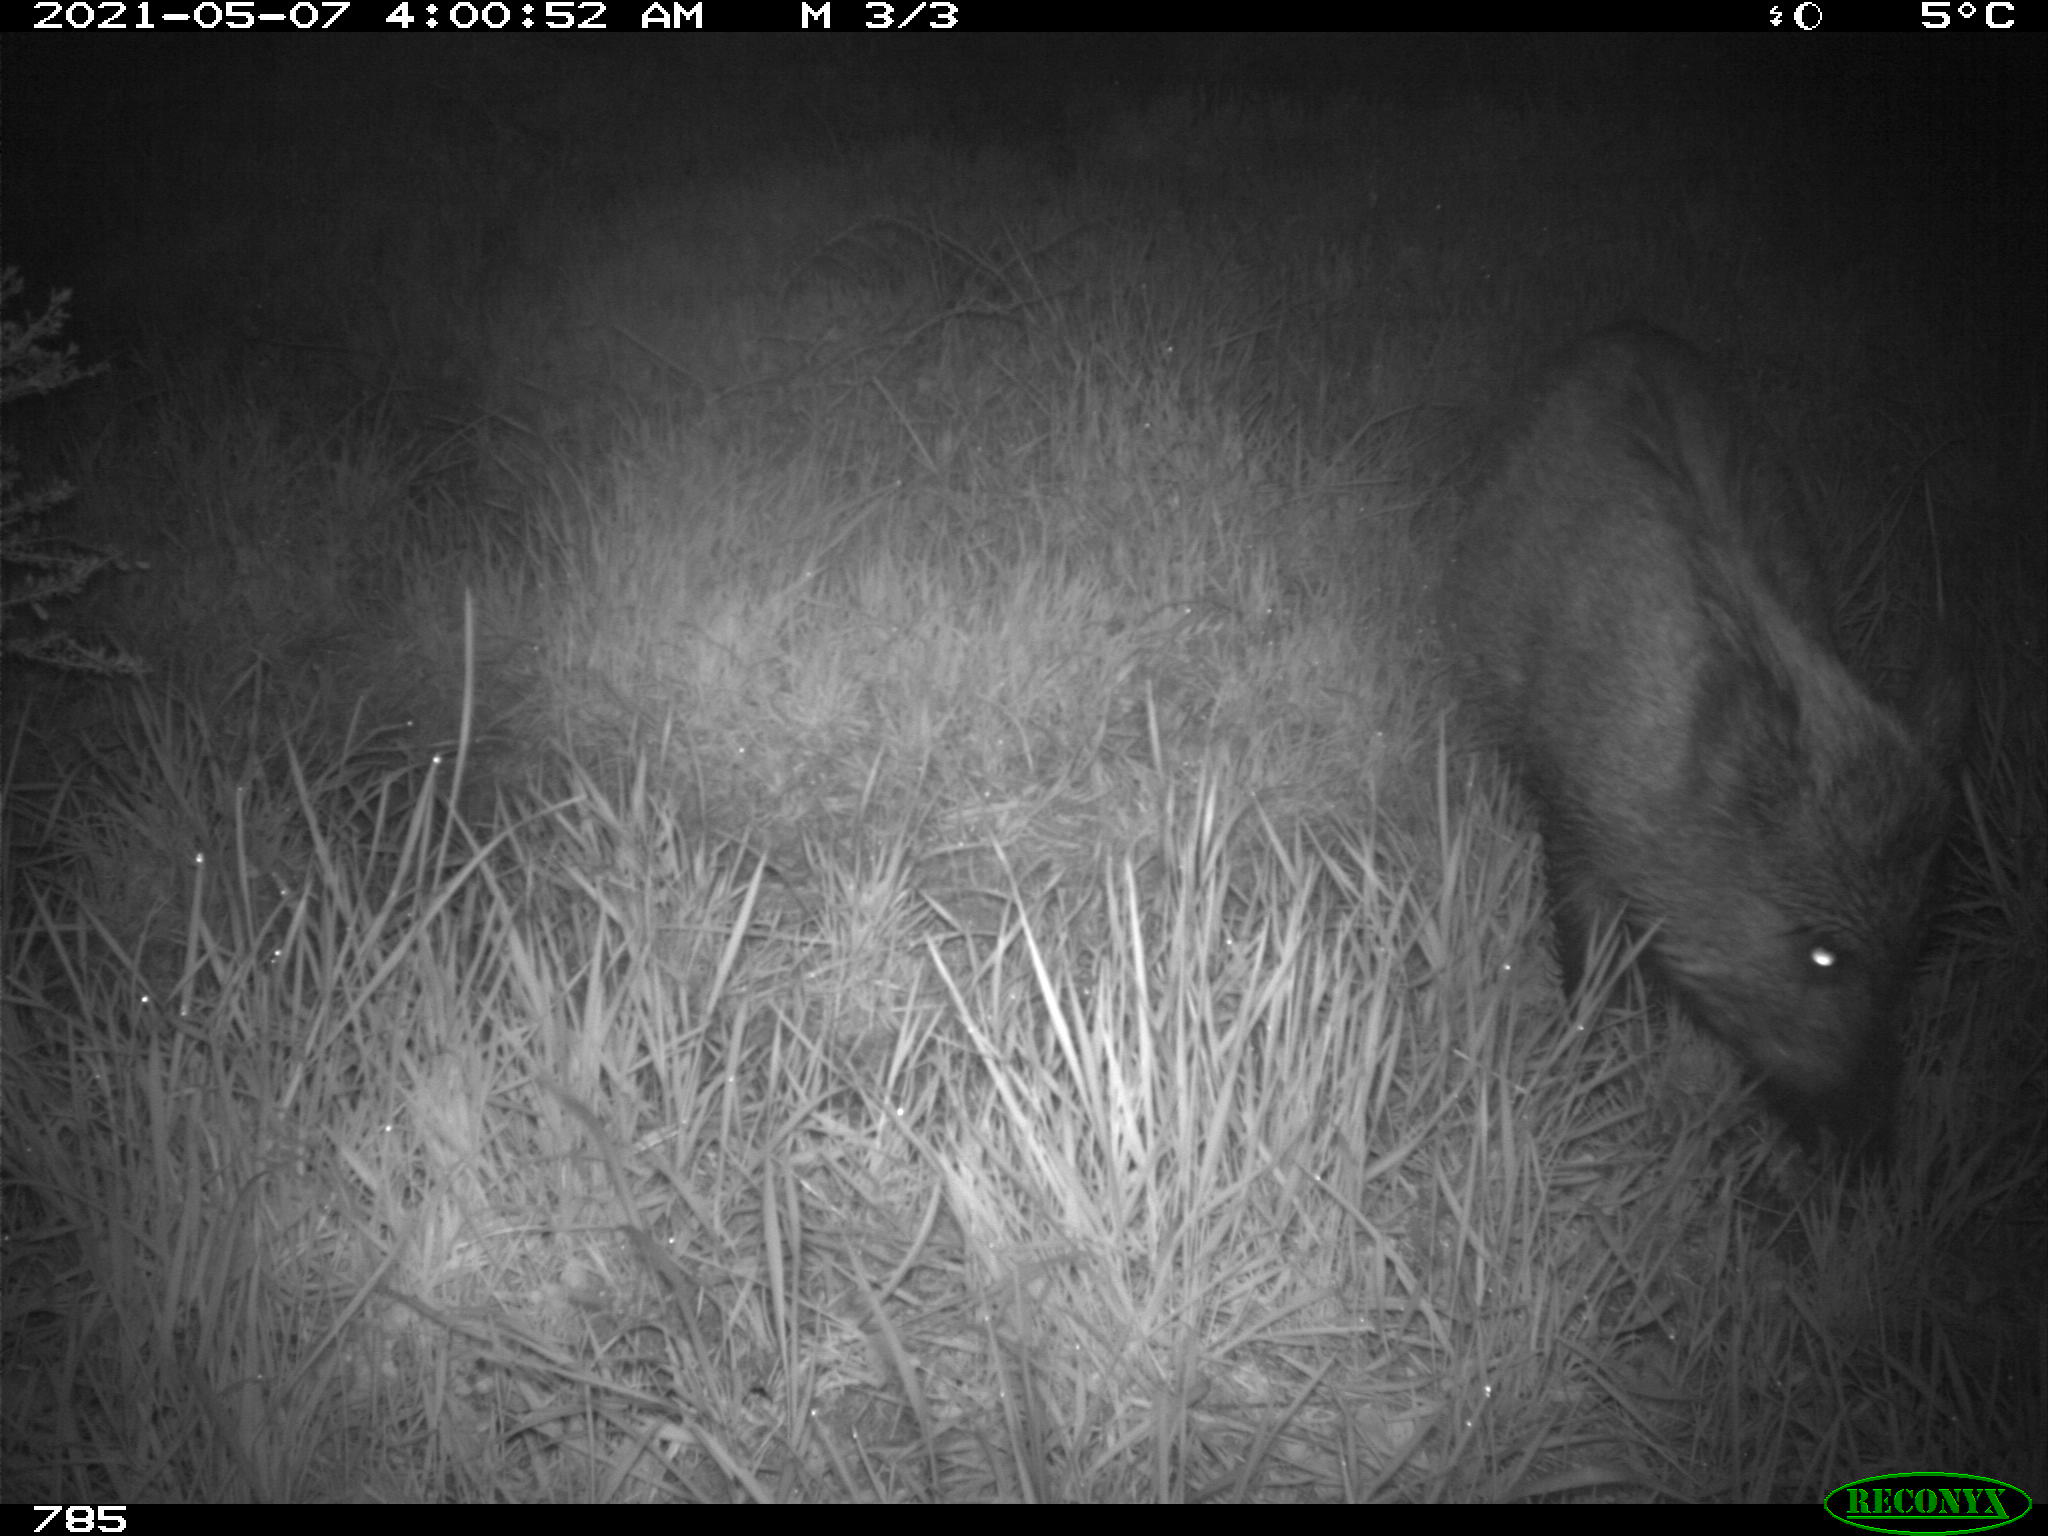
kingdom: Animalia
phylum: Chordata
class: Mammalia
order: Artiodactyla
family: Suidae
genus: Sus
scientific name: Sus scrofa
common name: Wild boar
